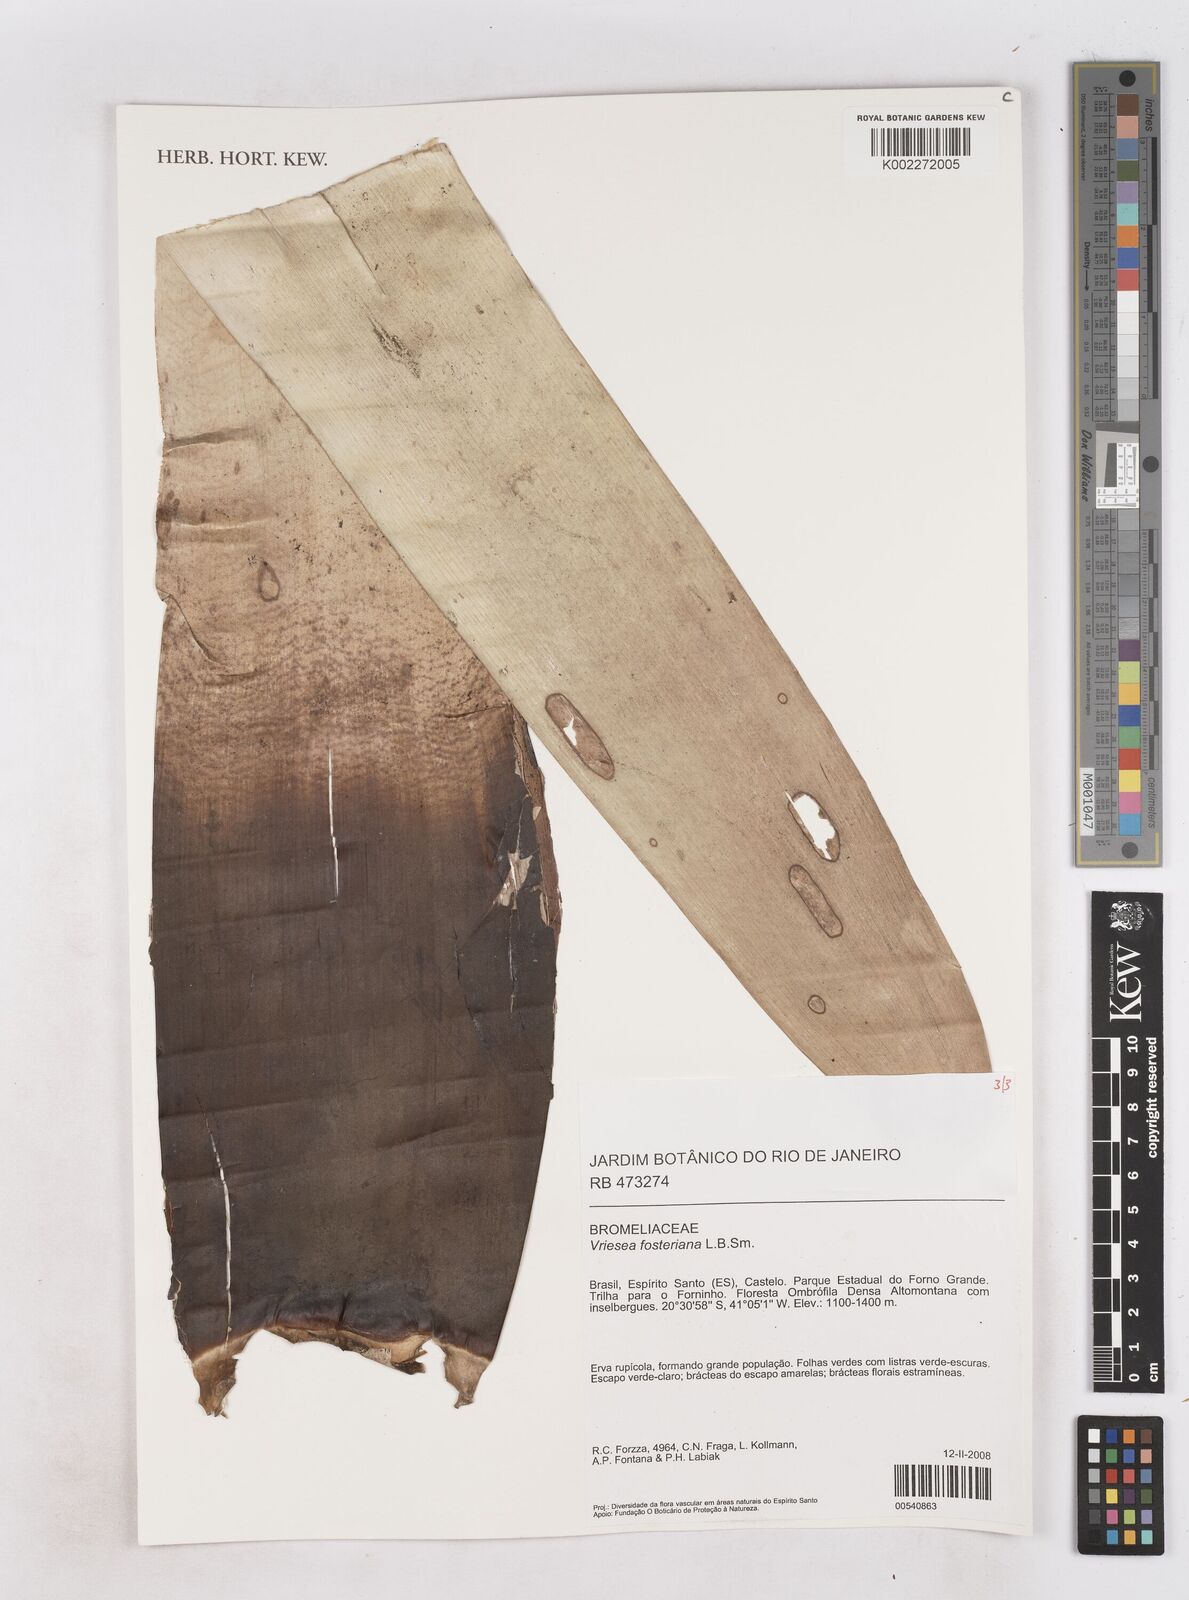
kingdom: Plantae
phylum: Tracheophyta
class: Liliopsida
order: Poales
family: Bromeliaceae
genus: Vriesea
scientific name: Vriesea fosteriana
